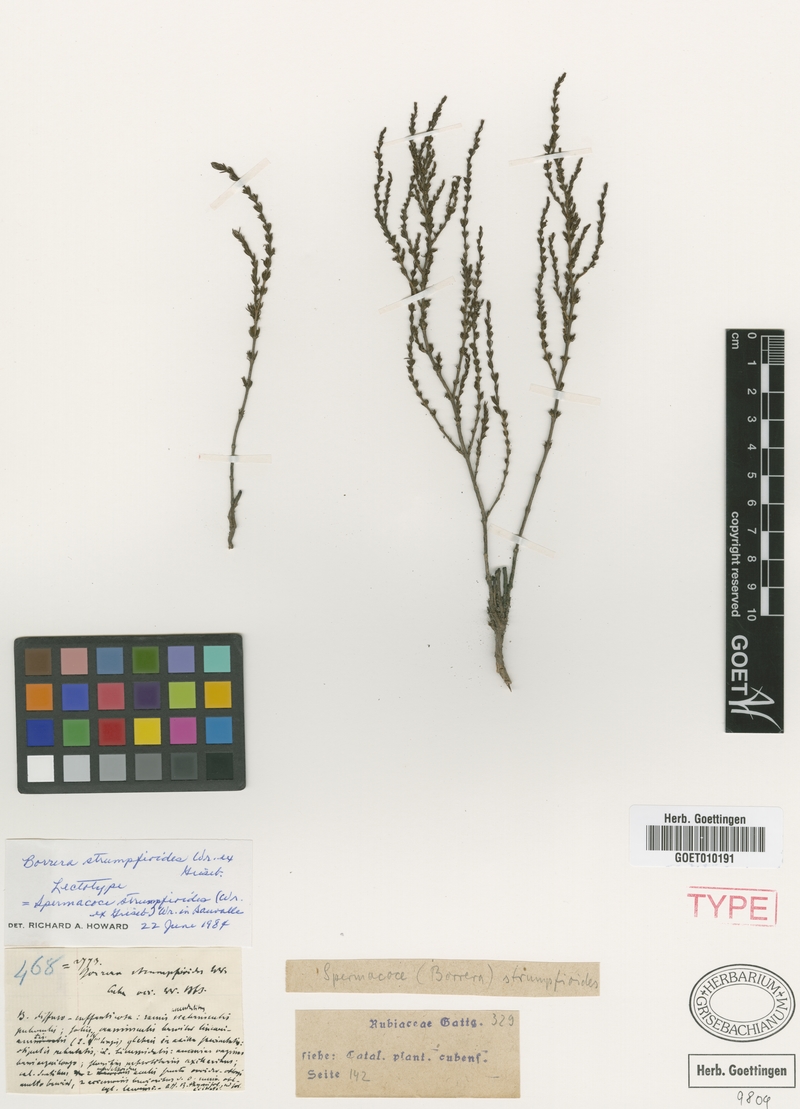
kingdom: Plantae
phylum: Tracheophyta
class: Magnoliopsida
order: Gentianales
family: Rubiaceae
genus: Spermacoce
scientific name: Spermacoce strumpfioides
